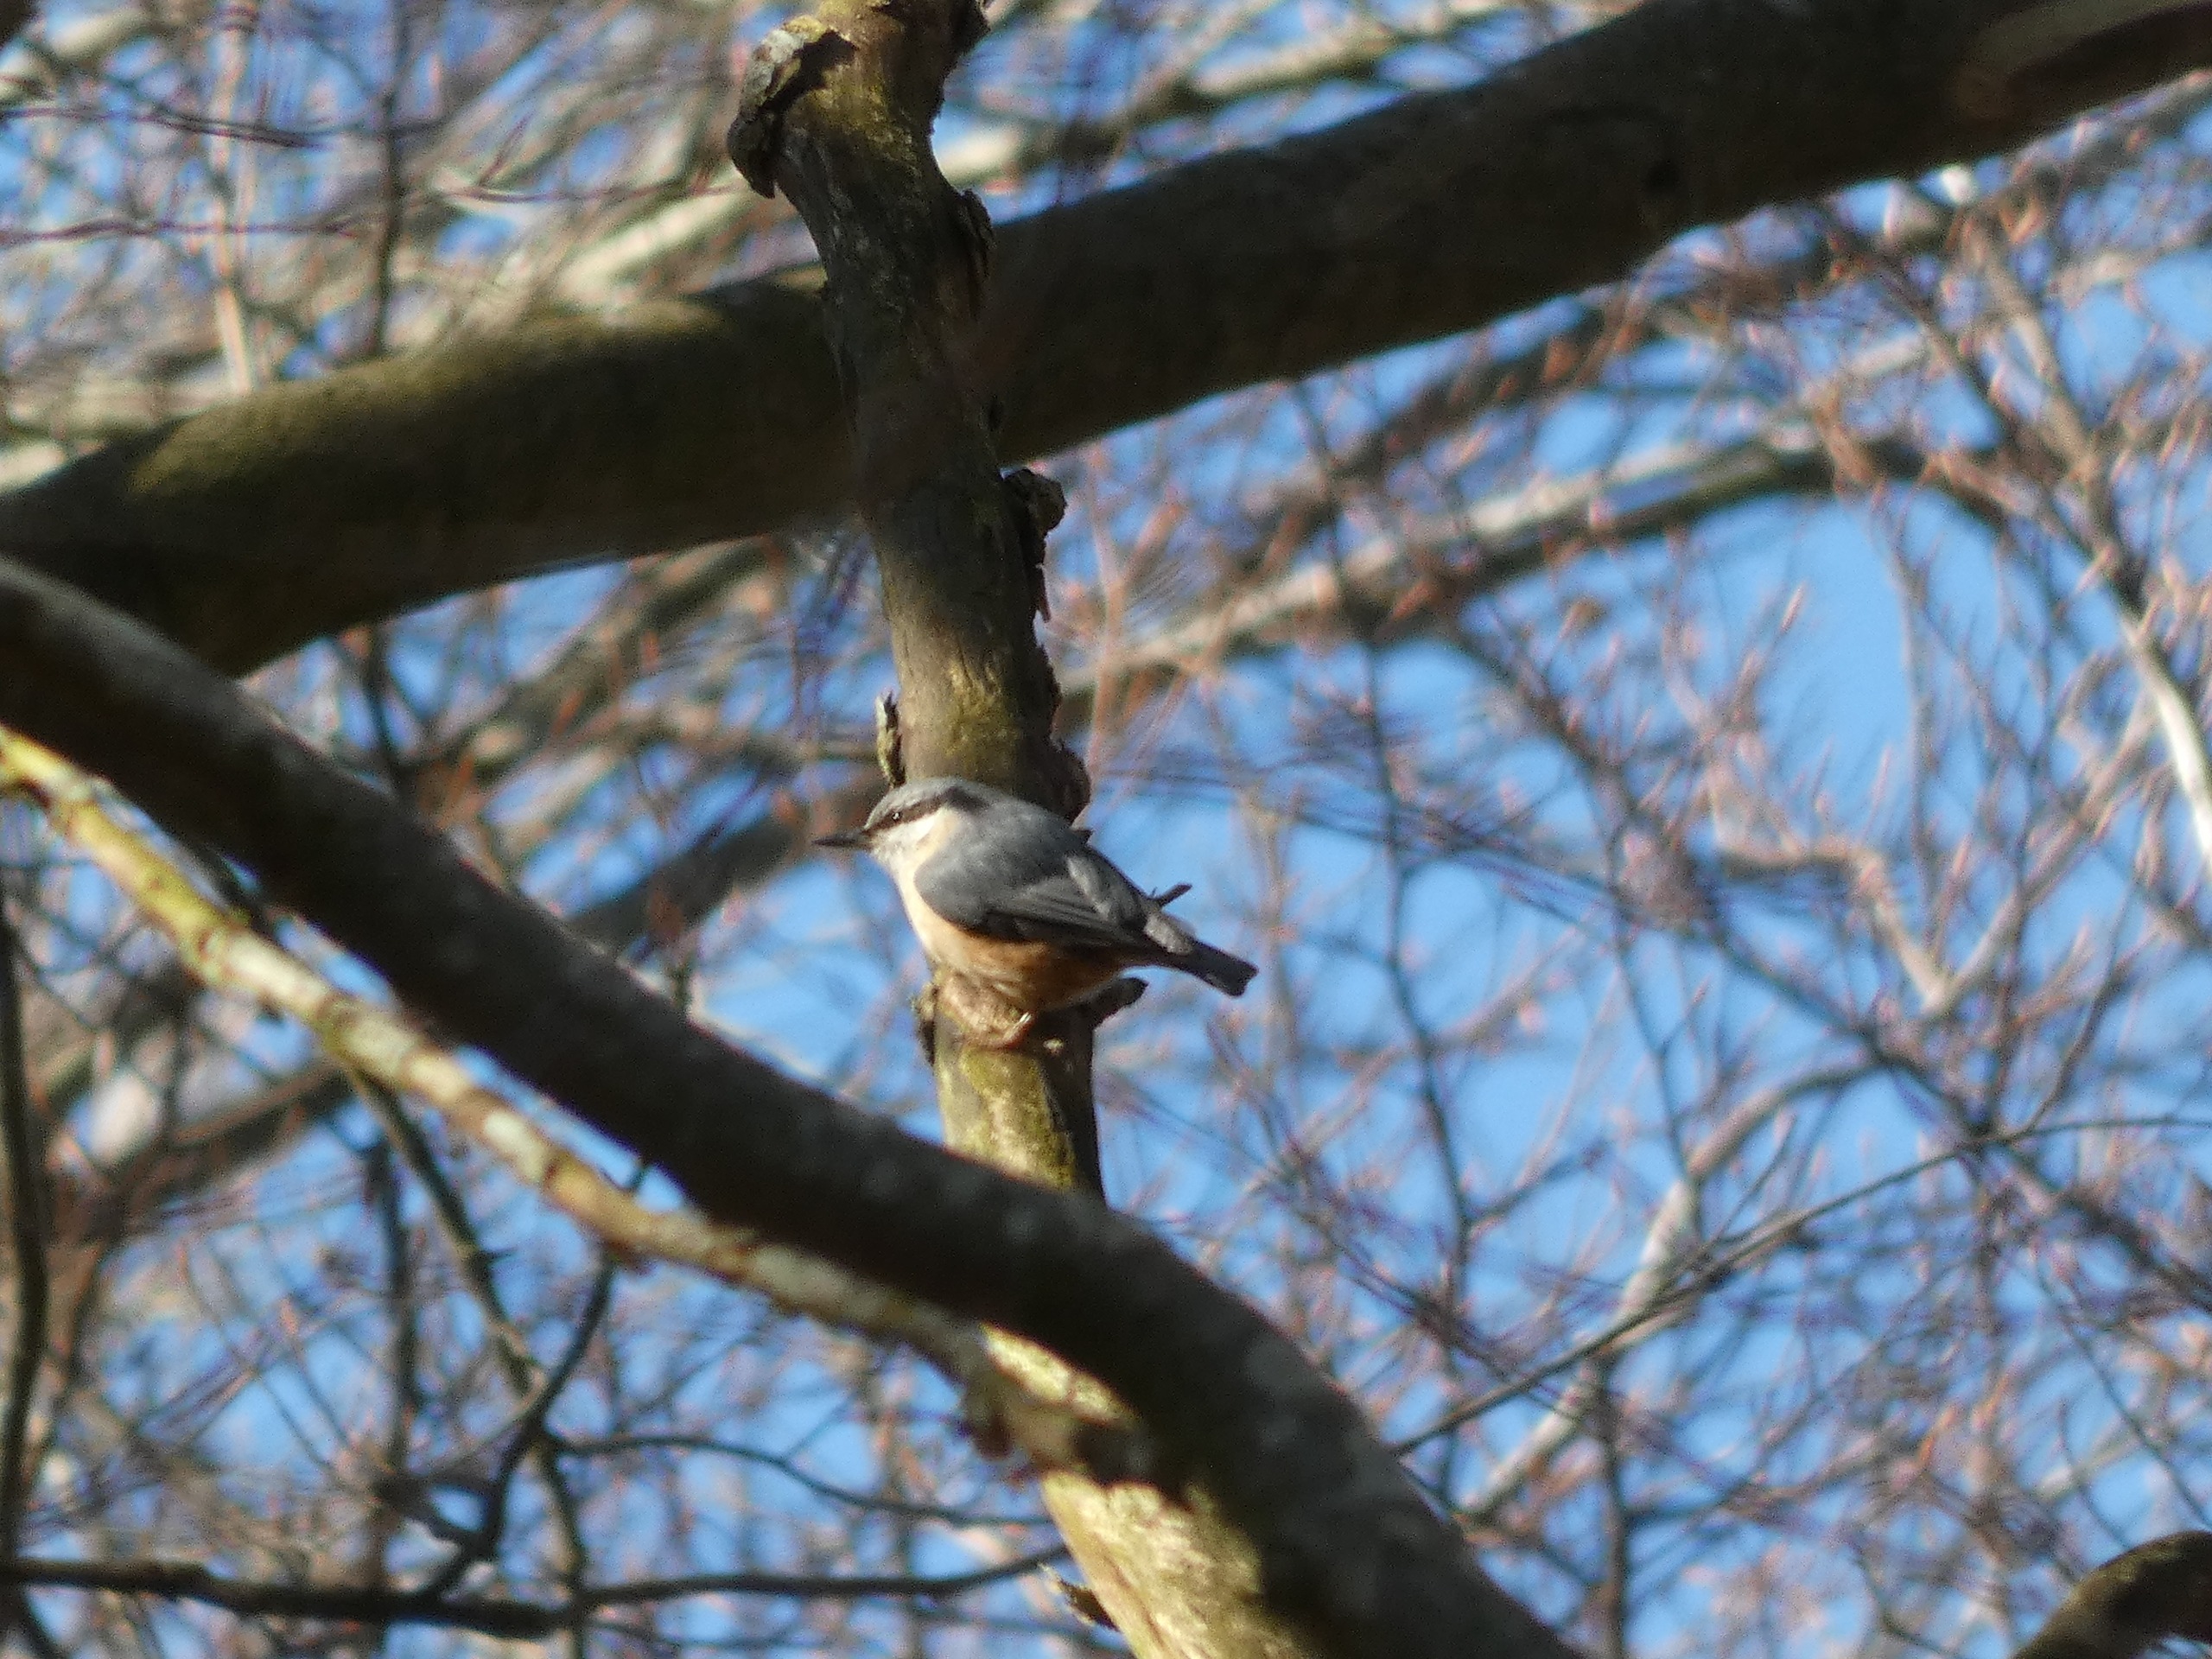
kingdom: Animalia
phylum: Chordata
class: Aves
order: Passeriformes
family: Sittidae
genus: Sitta
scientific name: Sitta europaea
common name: Spætmejse
